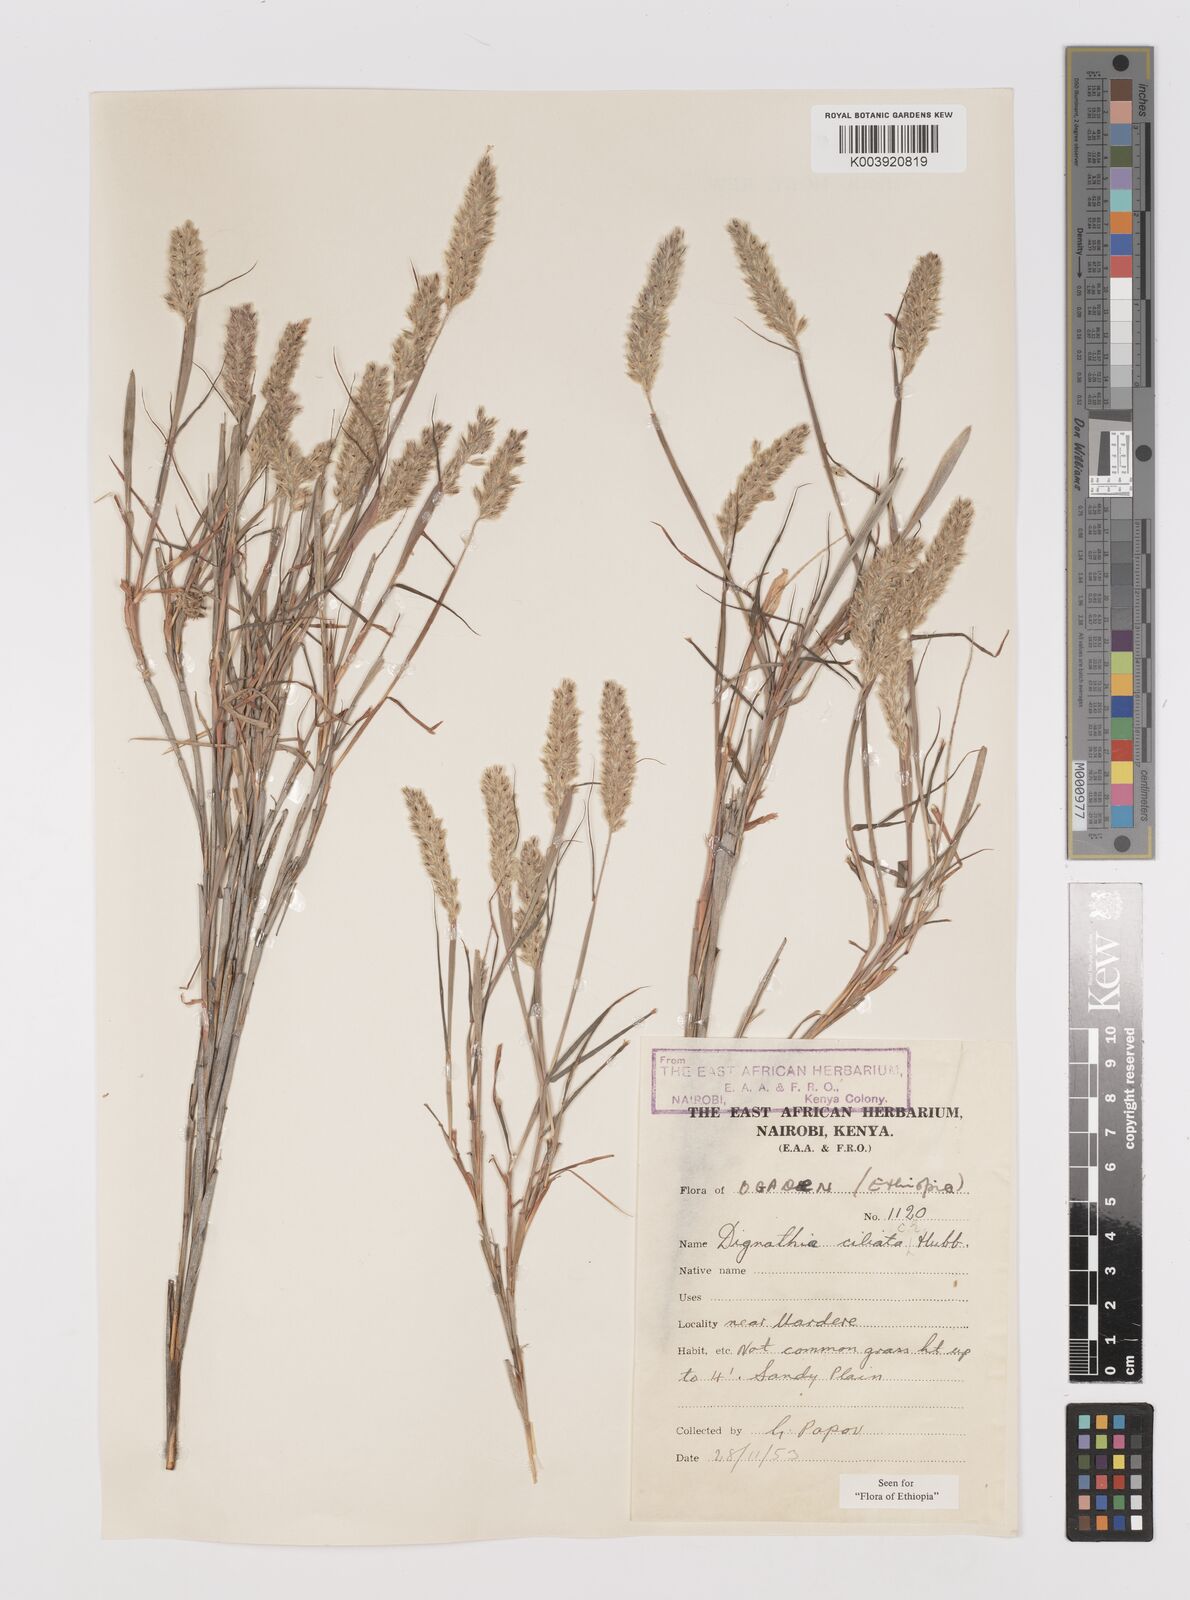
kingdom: Plantae
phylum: Tracheophyta
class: Liliopsida
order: Poales
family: Poaceae
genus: Dignathia
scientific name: Dignathia ciliata
